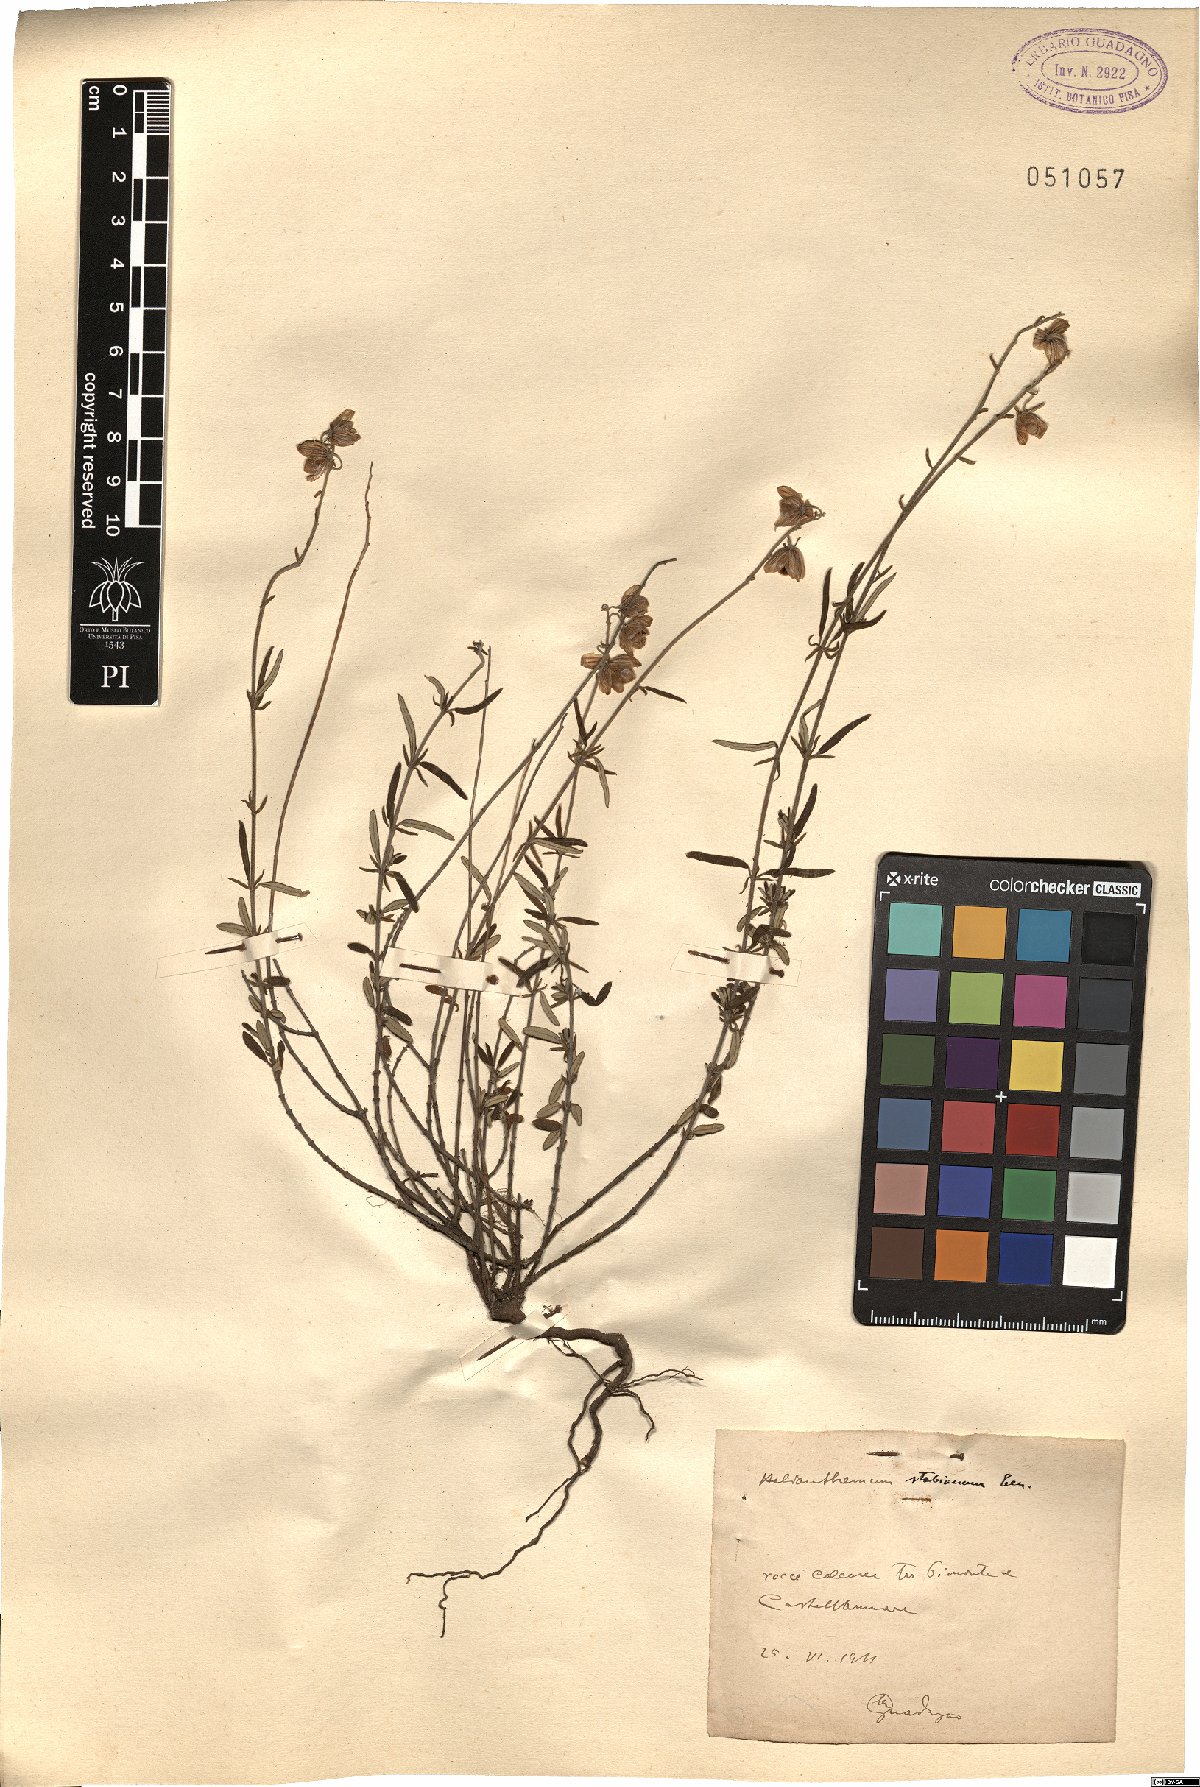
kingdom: Plantae
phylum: Tracheophyta
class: Magnoliopsida
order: Malvales
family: Cistaceae
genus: Helianthemum
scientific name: Helianthemum croceum
